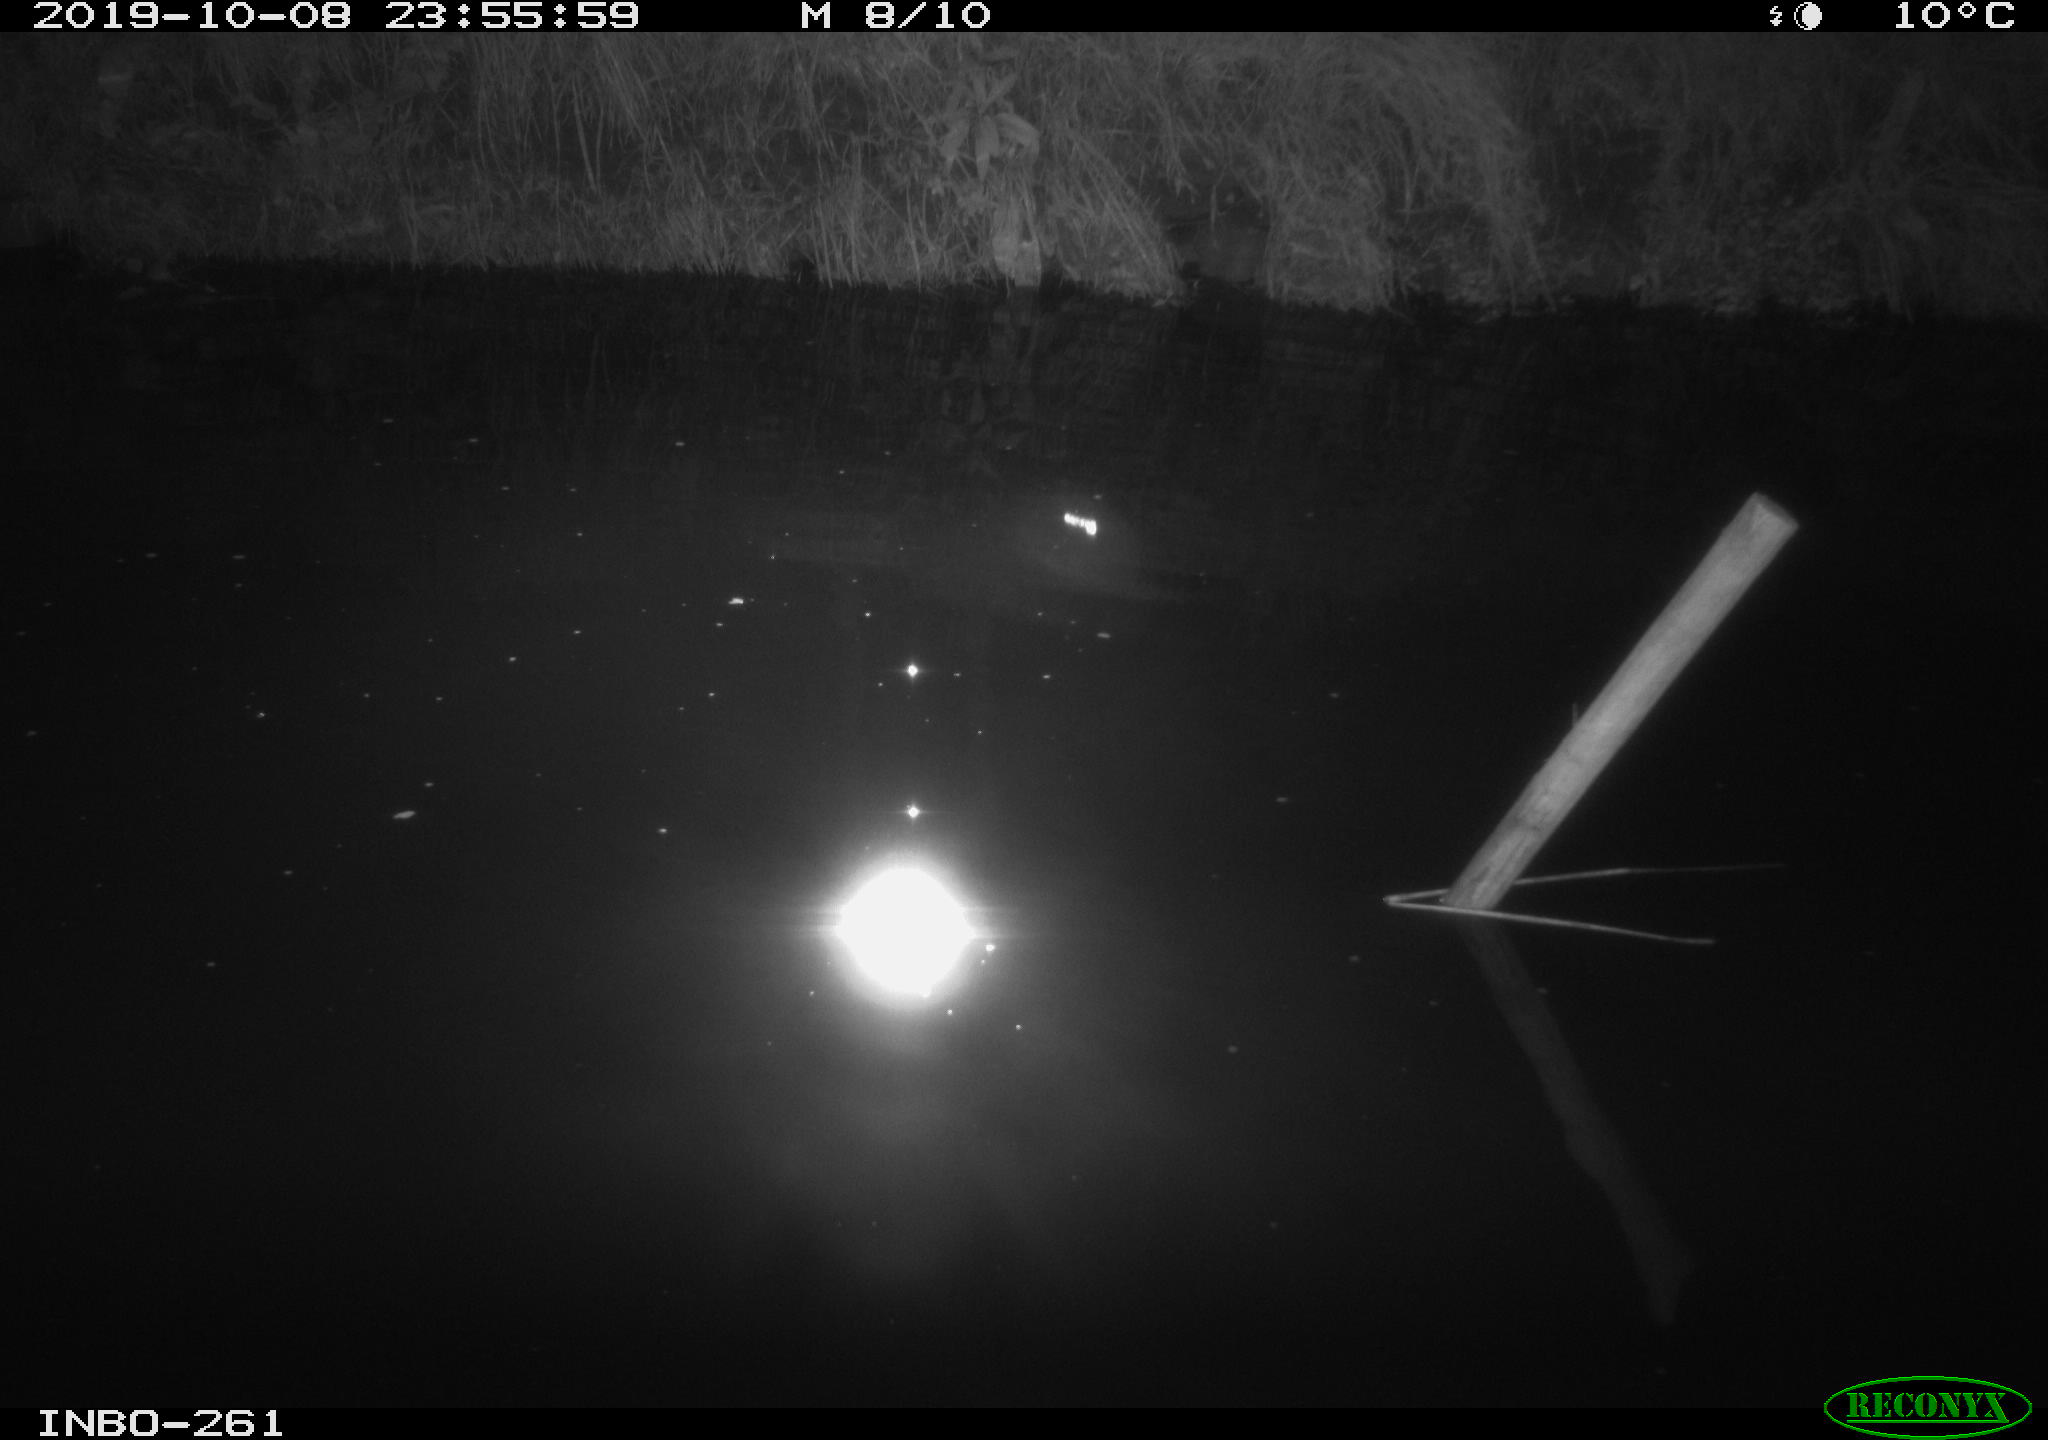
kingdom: Animalia
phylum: Chordata
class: Aves
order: Anseriformes
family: Anatidae
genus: Anas
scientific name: Anas platyrhynchos
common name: Mallard
